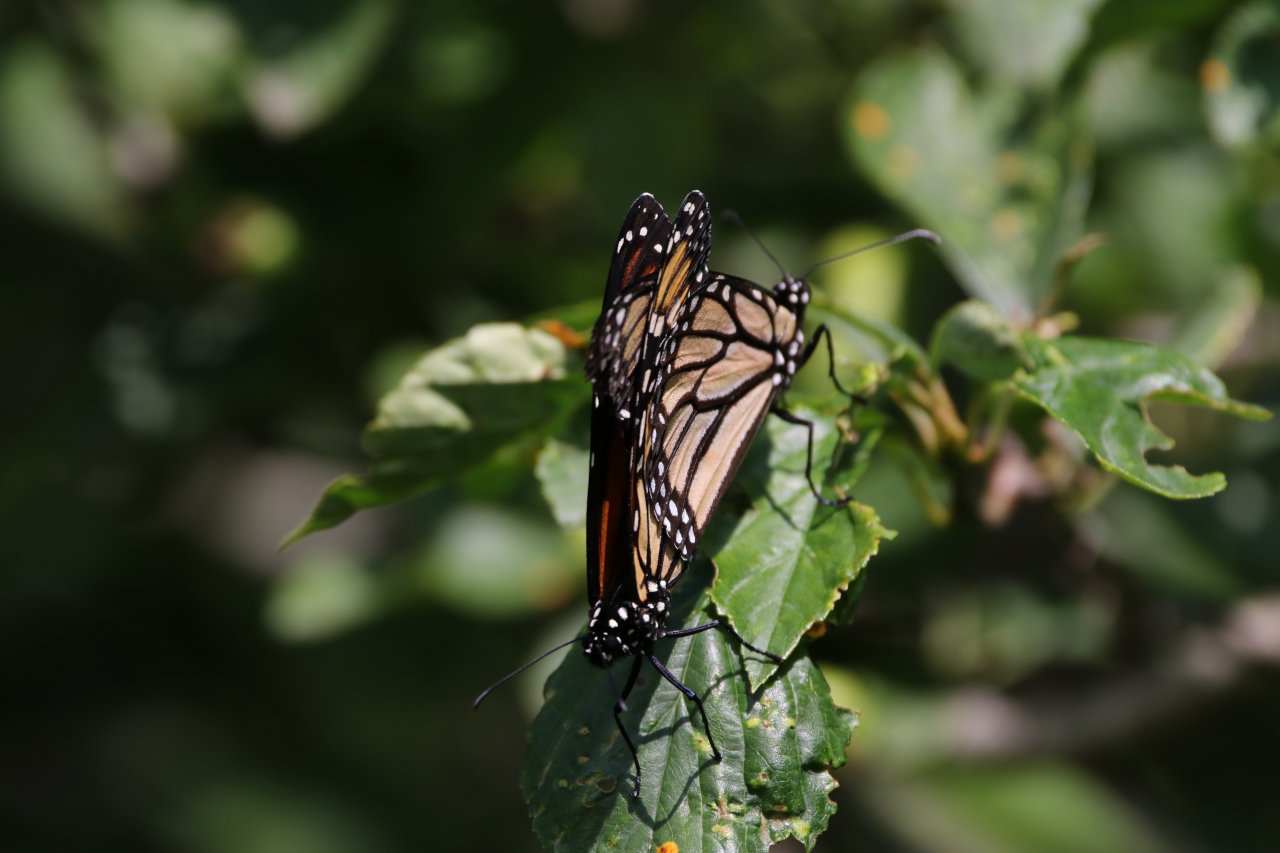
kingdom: Animalia
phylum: Arthropoda
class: Insecta
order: Lepidoptera
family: Nymphalidae
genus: Danaus
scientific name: Danaus plexippus
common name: Monarch
